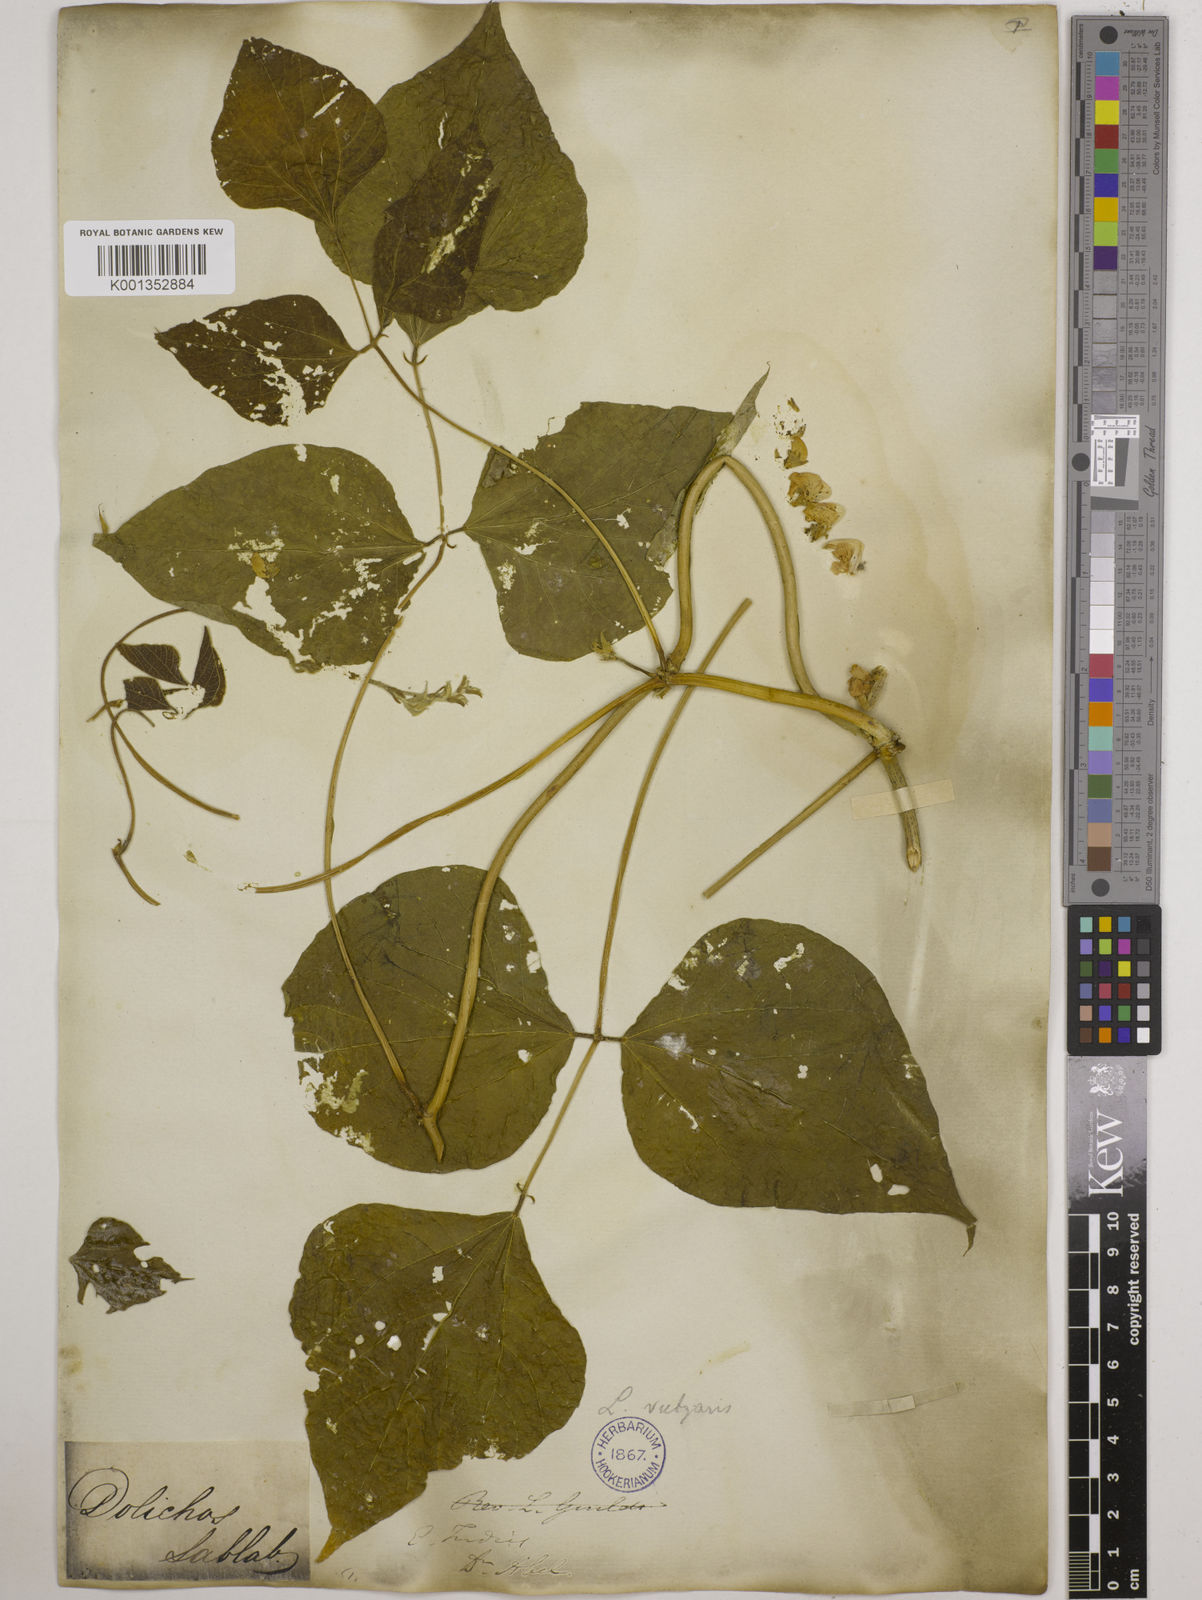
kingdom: Plantae
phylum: Tracheophyta
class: Magnoliopsida
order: Fabales
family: Fabaceae
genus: Lablab
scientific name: Lablab purpureus
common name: Lablab-bean
